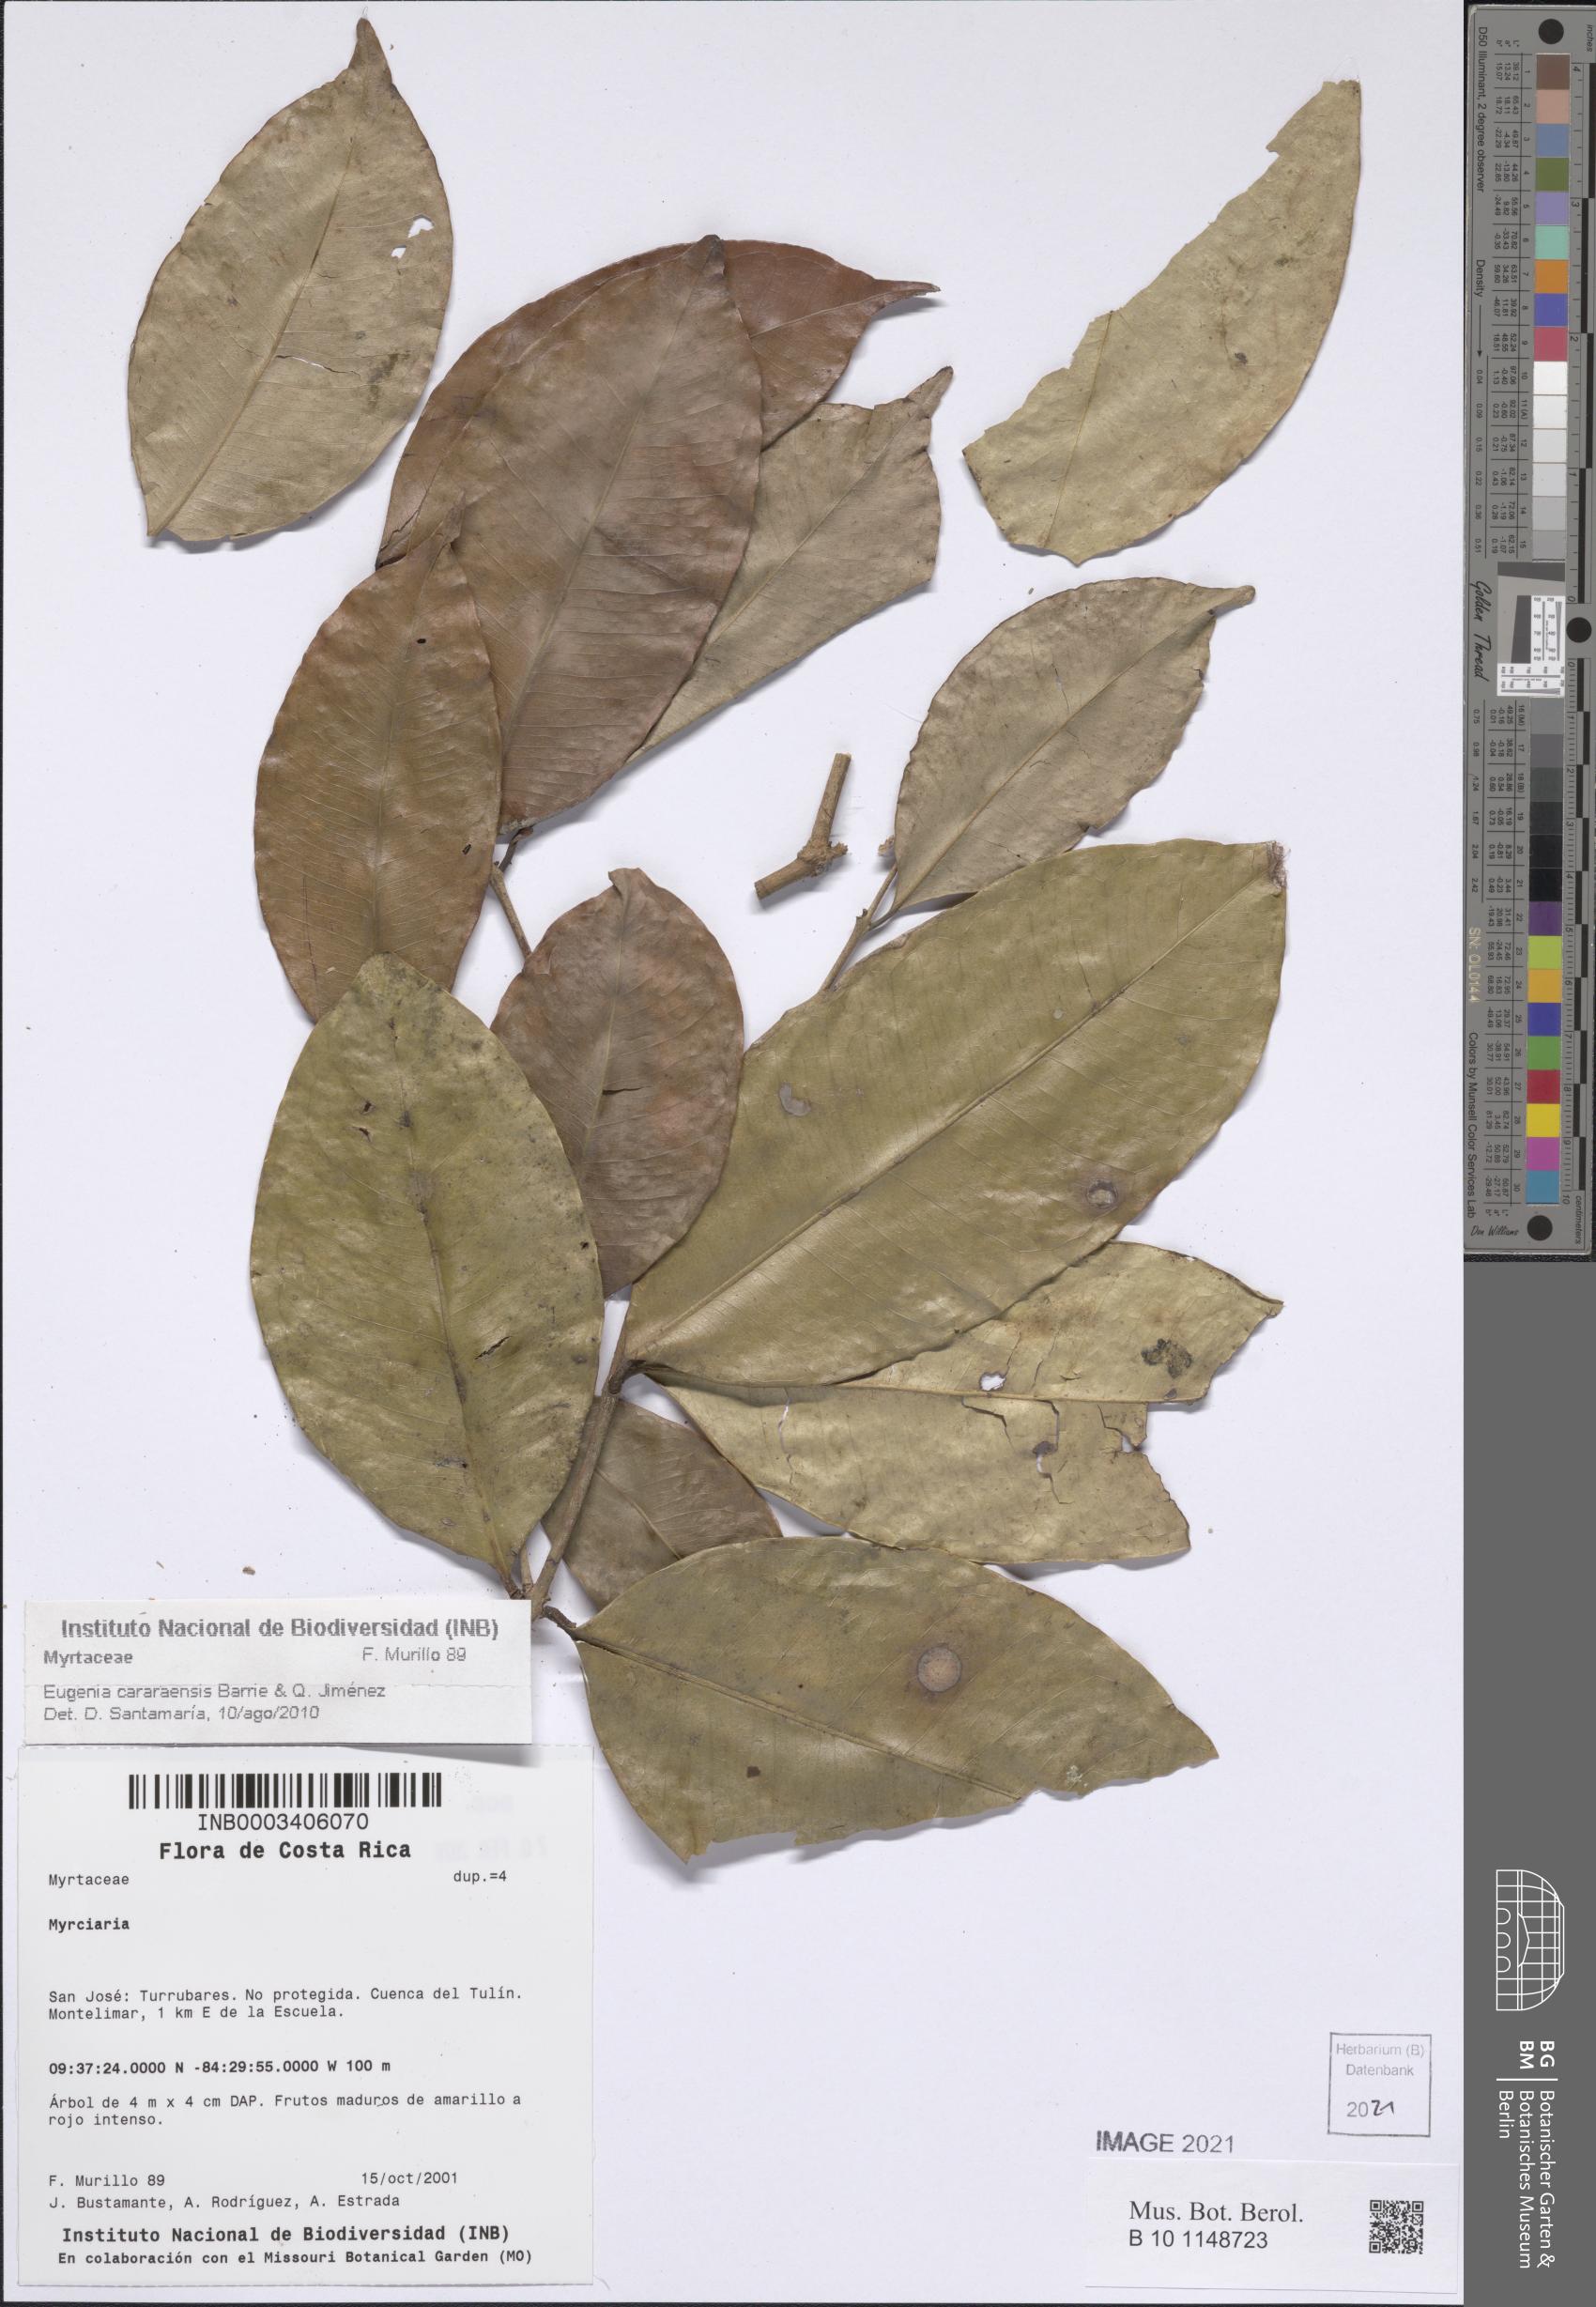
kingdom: Plantae
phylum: Tracheophyta
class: Magnoliopsida
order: Myrtales
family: Myrtaceae
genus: Eugenia
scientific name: Eugenia cararensis
